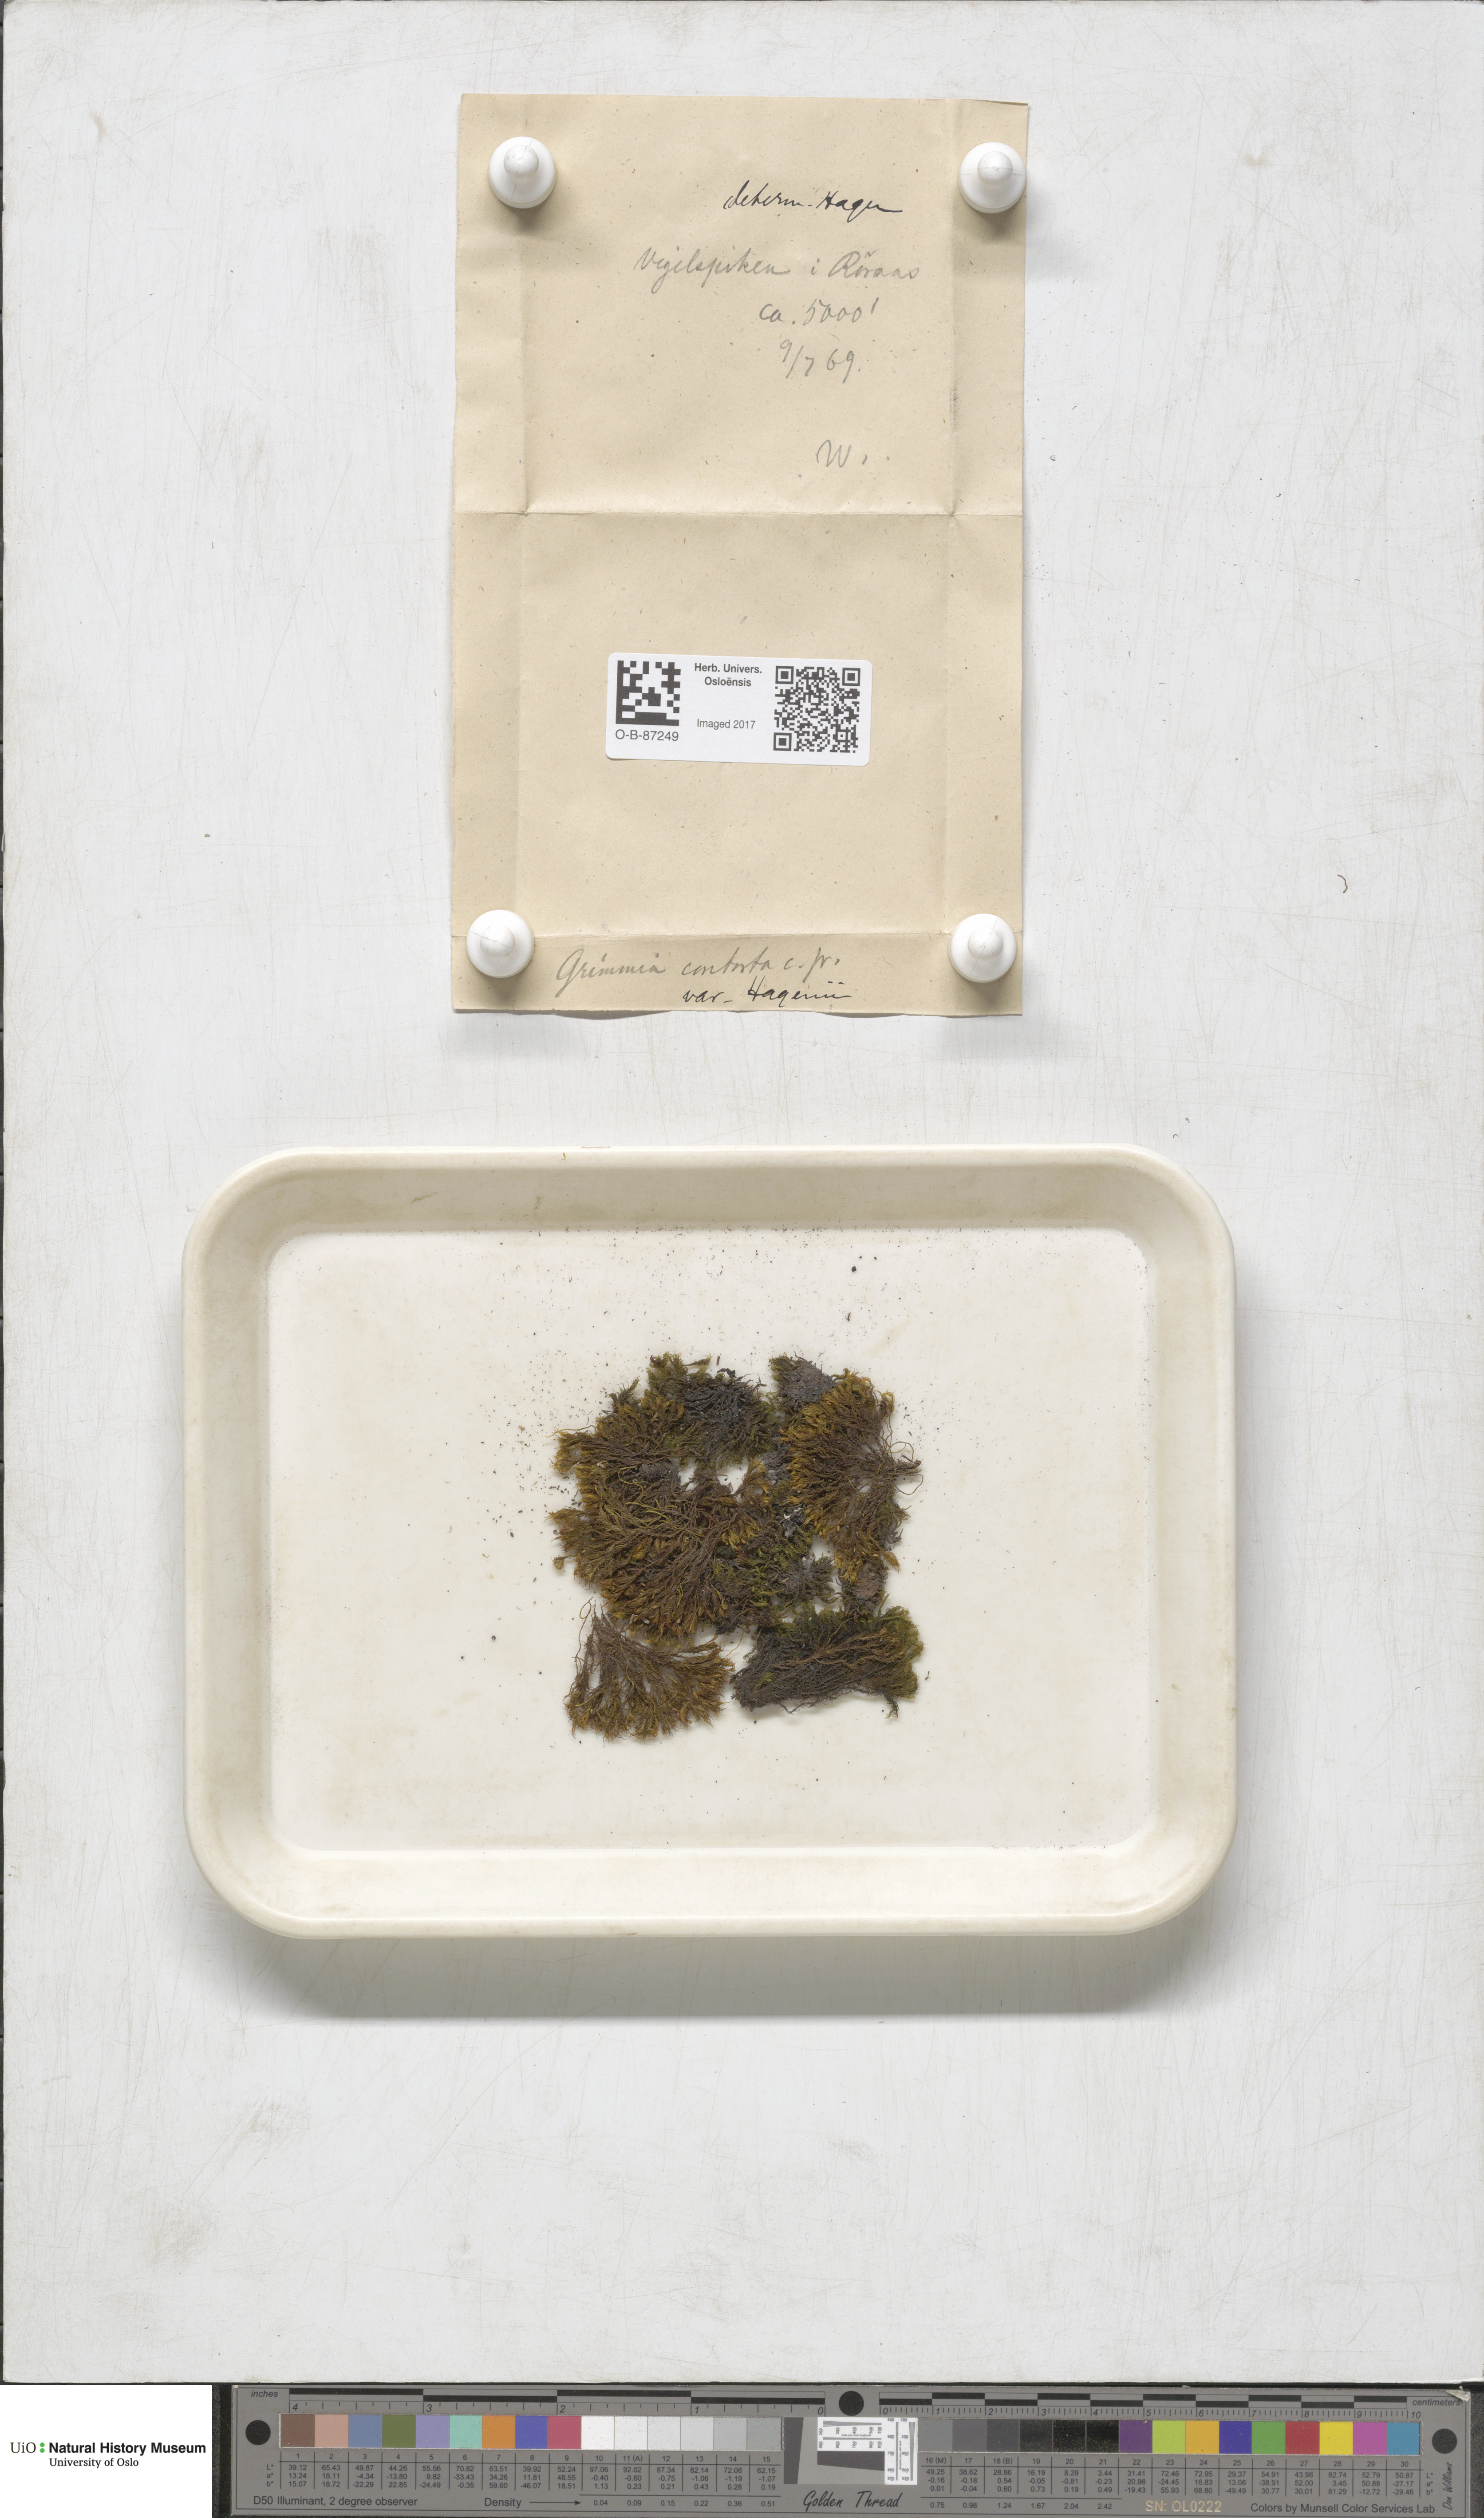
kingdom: Plantae
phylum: Bryophyta
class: Bryopsida
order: Grimmiales
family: Grimmiaceae
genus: Grimmia
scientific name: Grimmia incurva
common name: Black grimmia
